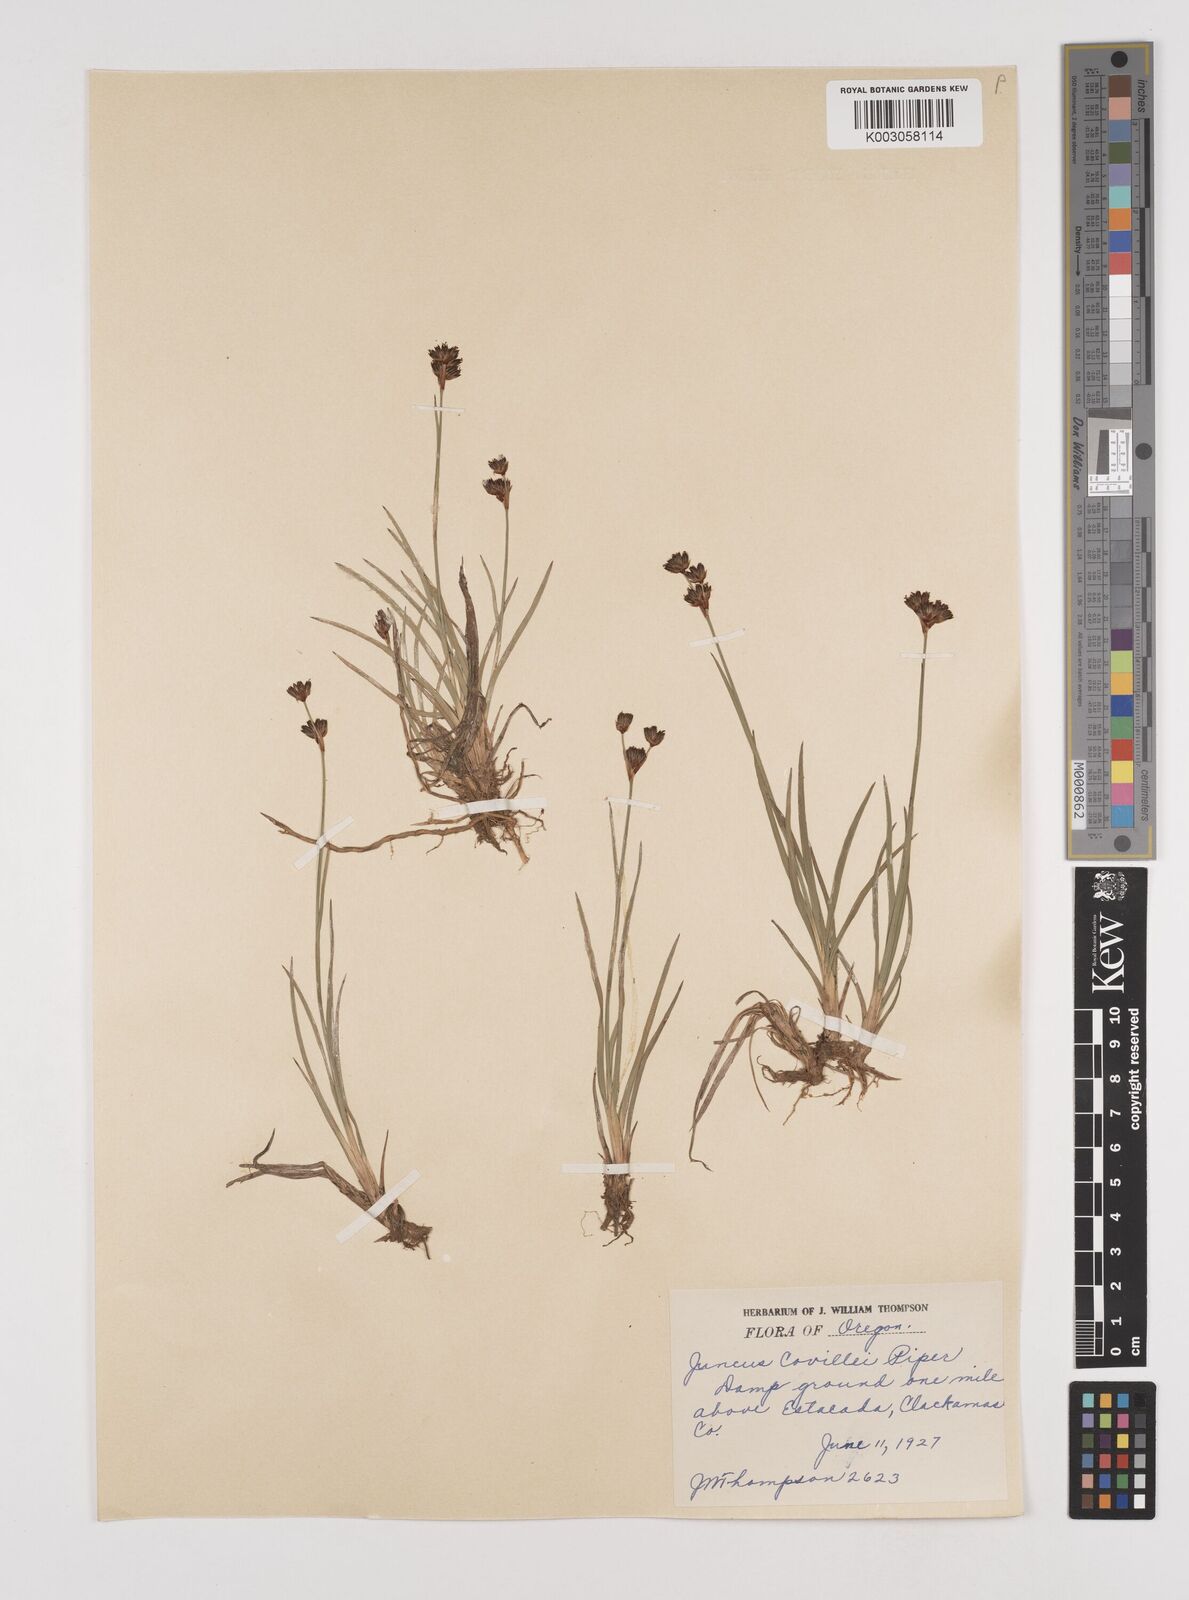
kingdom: Plantae
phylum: Tracheophyta
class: Liliopsida
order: Poales
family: Juncaceae
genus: Juncus
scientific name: Juncus covillei
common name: Coville's rush
